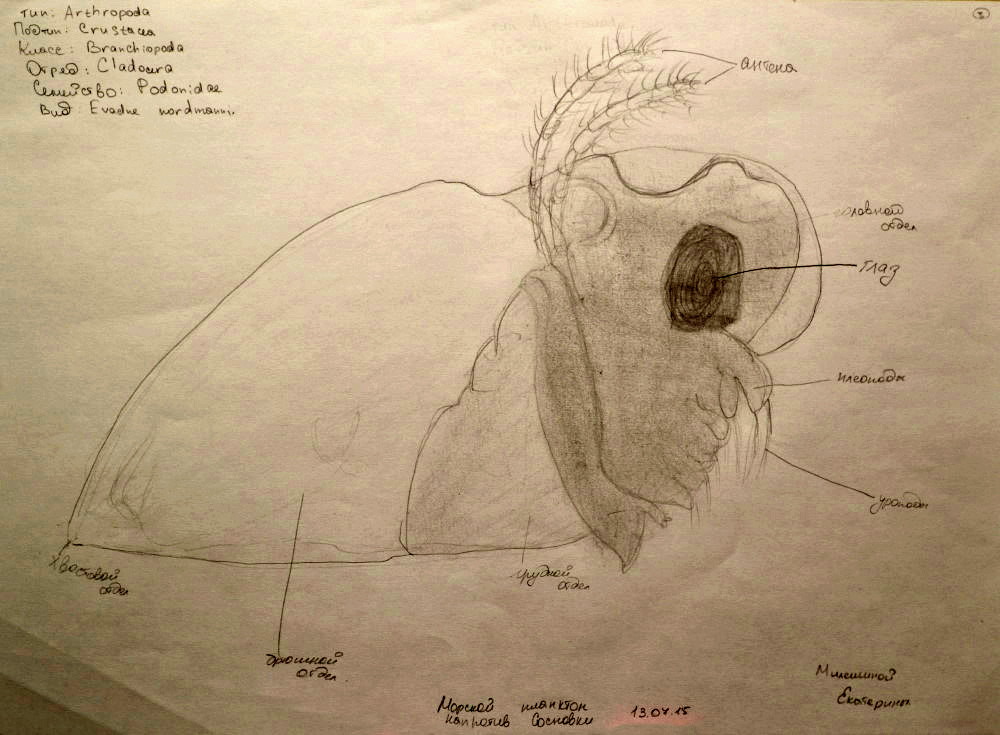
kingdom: Animalia
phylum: Arthropoda
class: Branchiopoda
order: Diplostraca
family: Podonidae
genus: Evadne
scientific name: Evadne nordmanni
